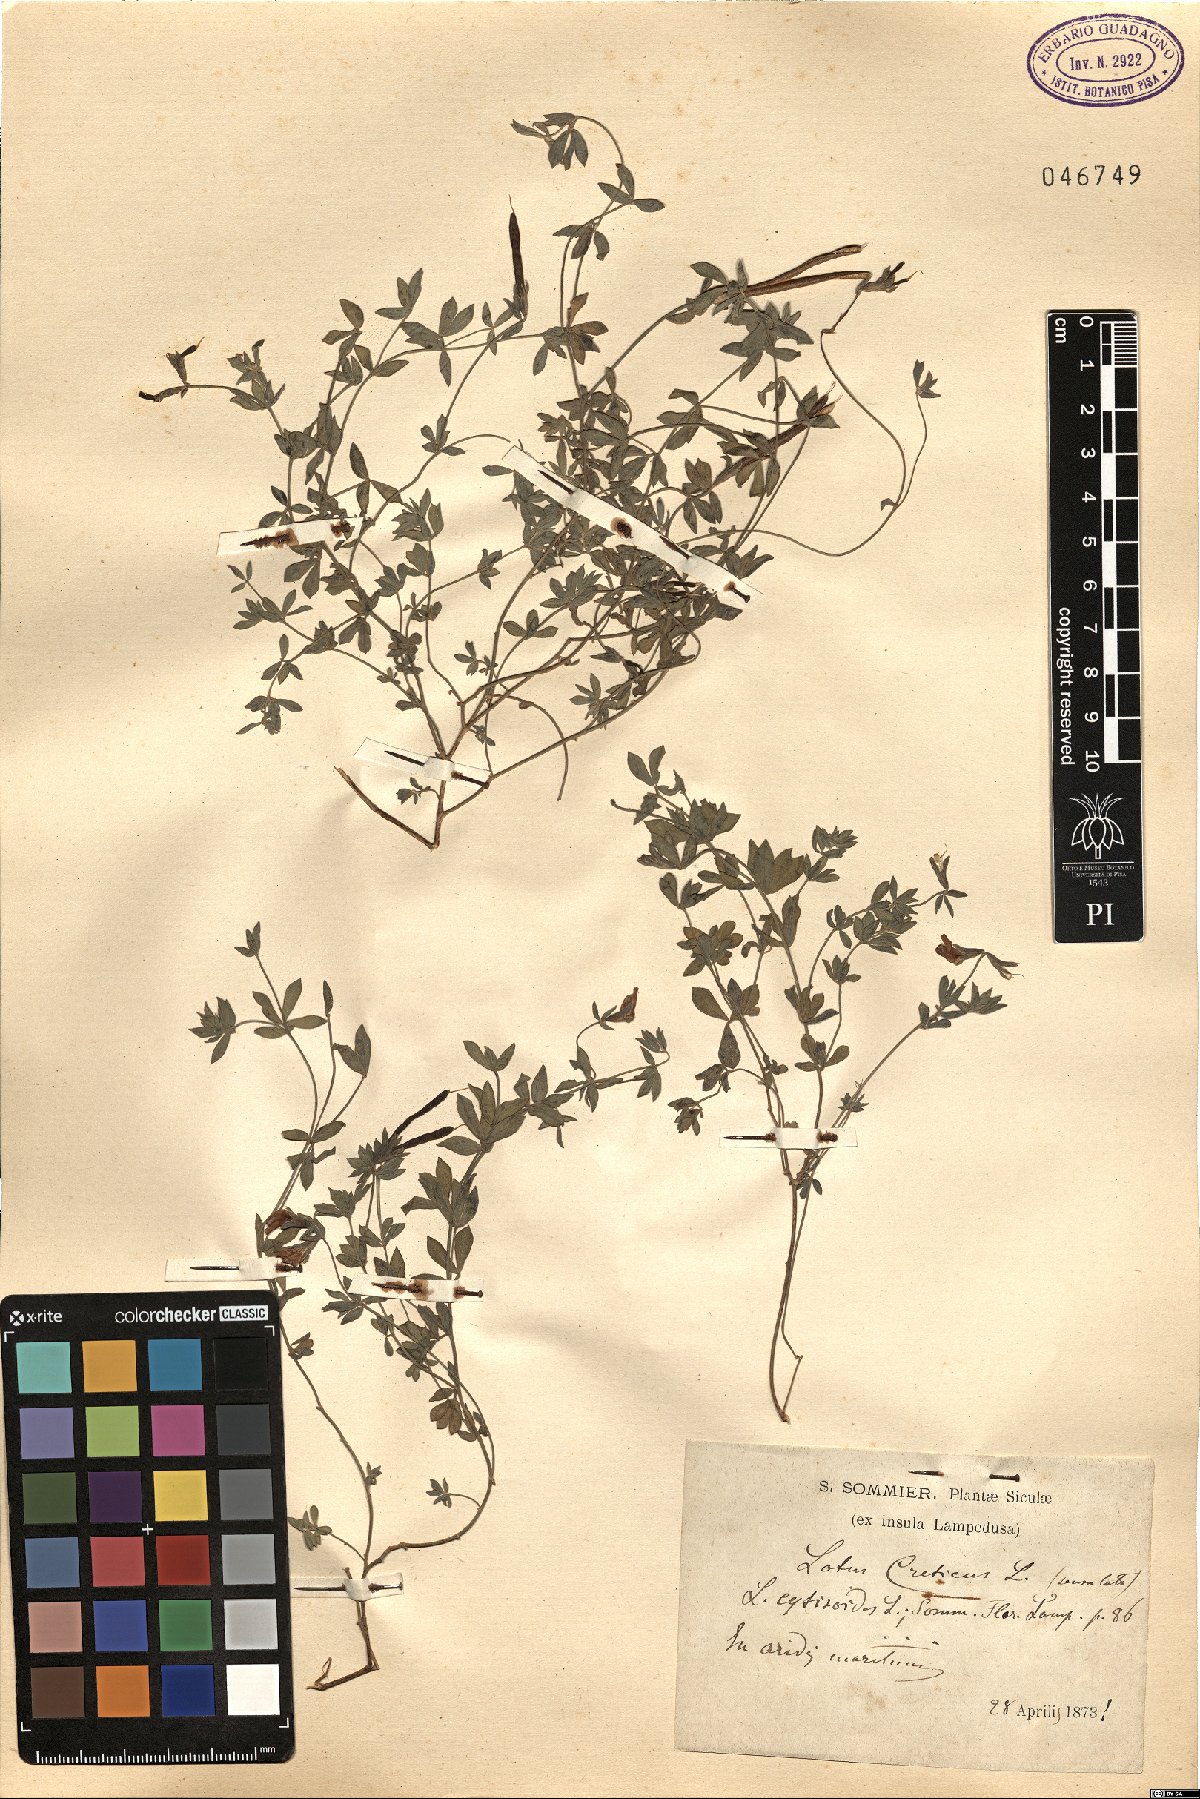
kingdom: Plantae
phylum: Tracheophyta
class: Magnoliopsida
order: Fabales
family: Fabaceae
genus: Lotus
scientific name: Lotus cytisoides
